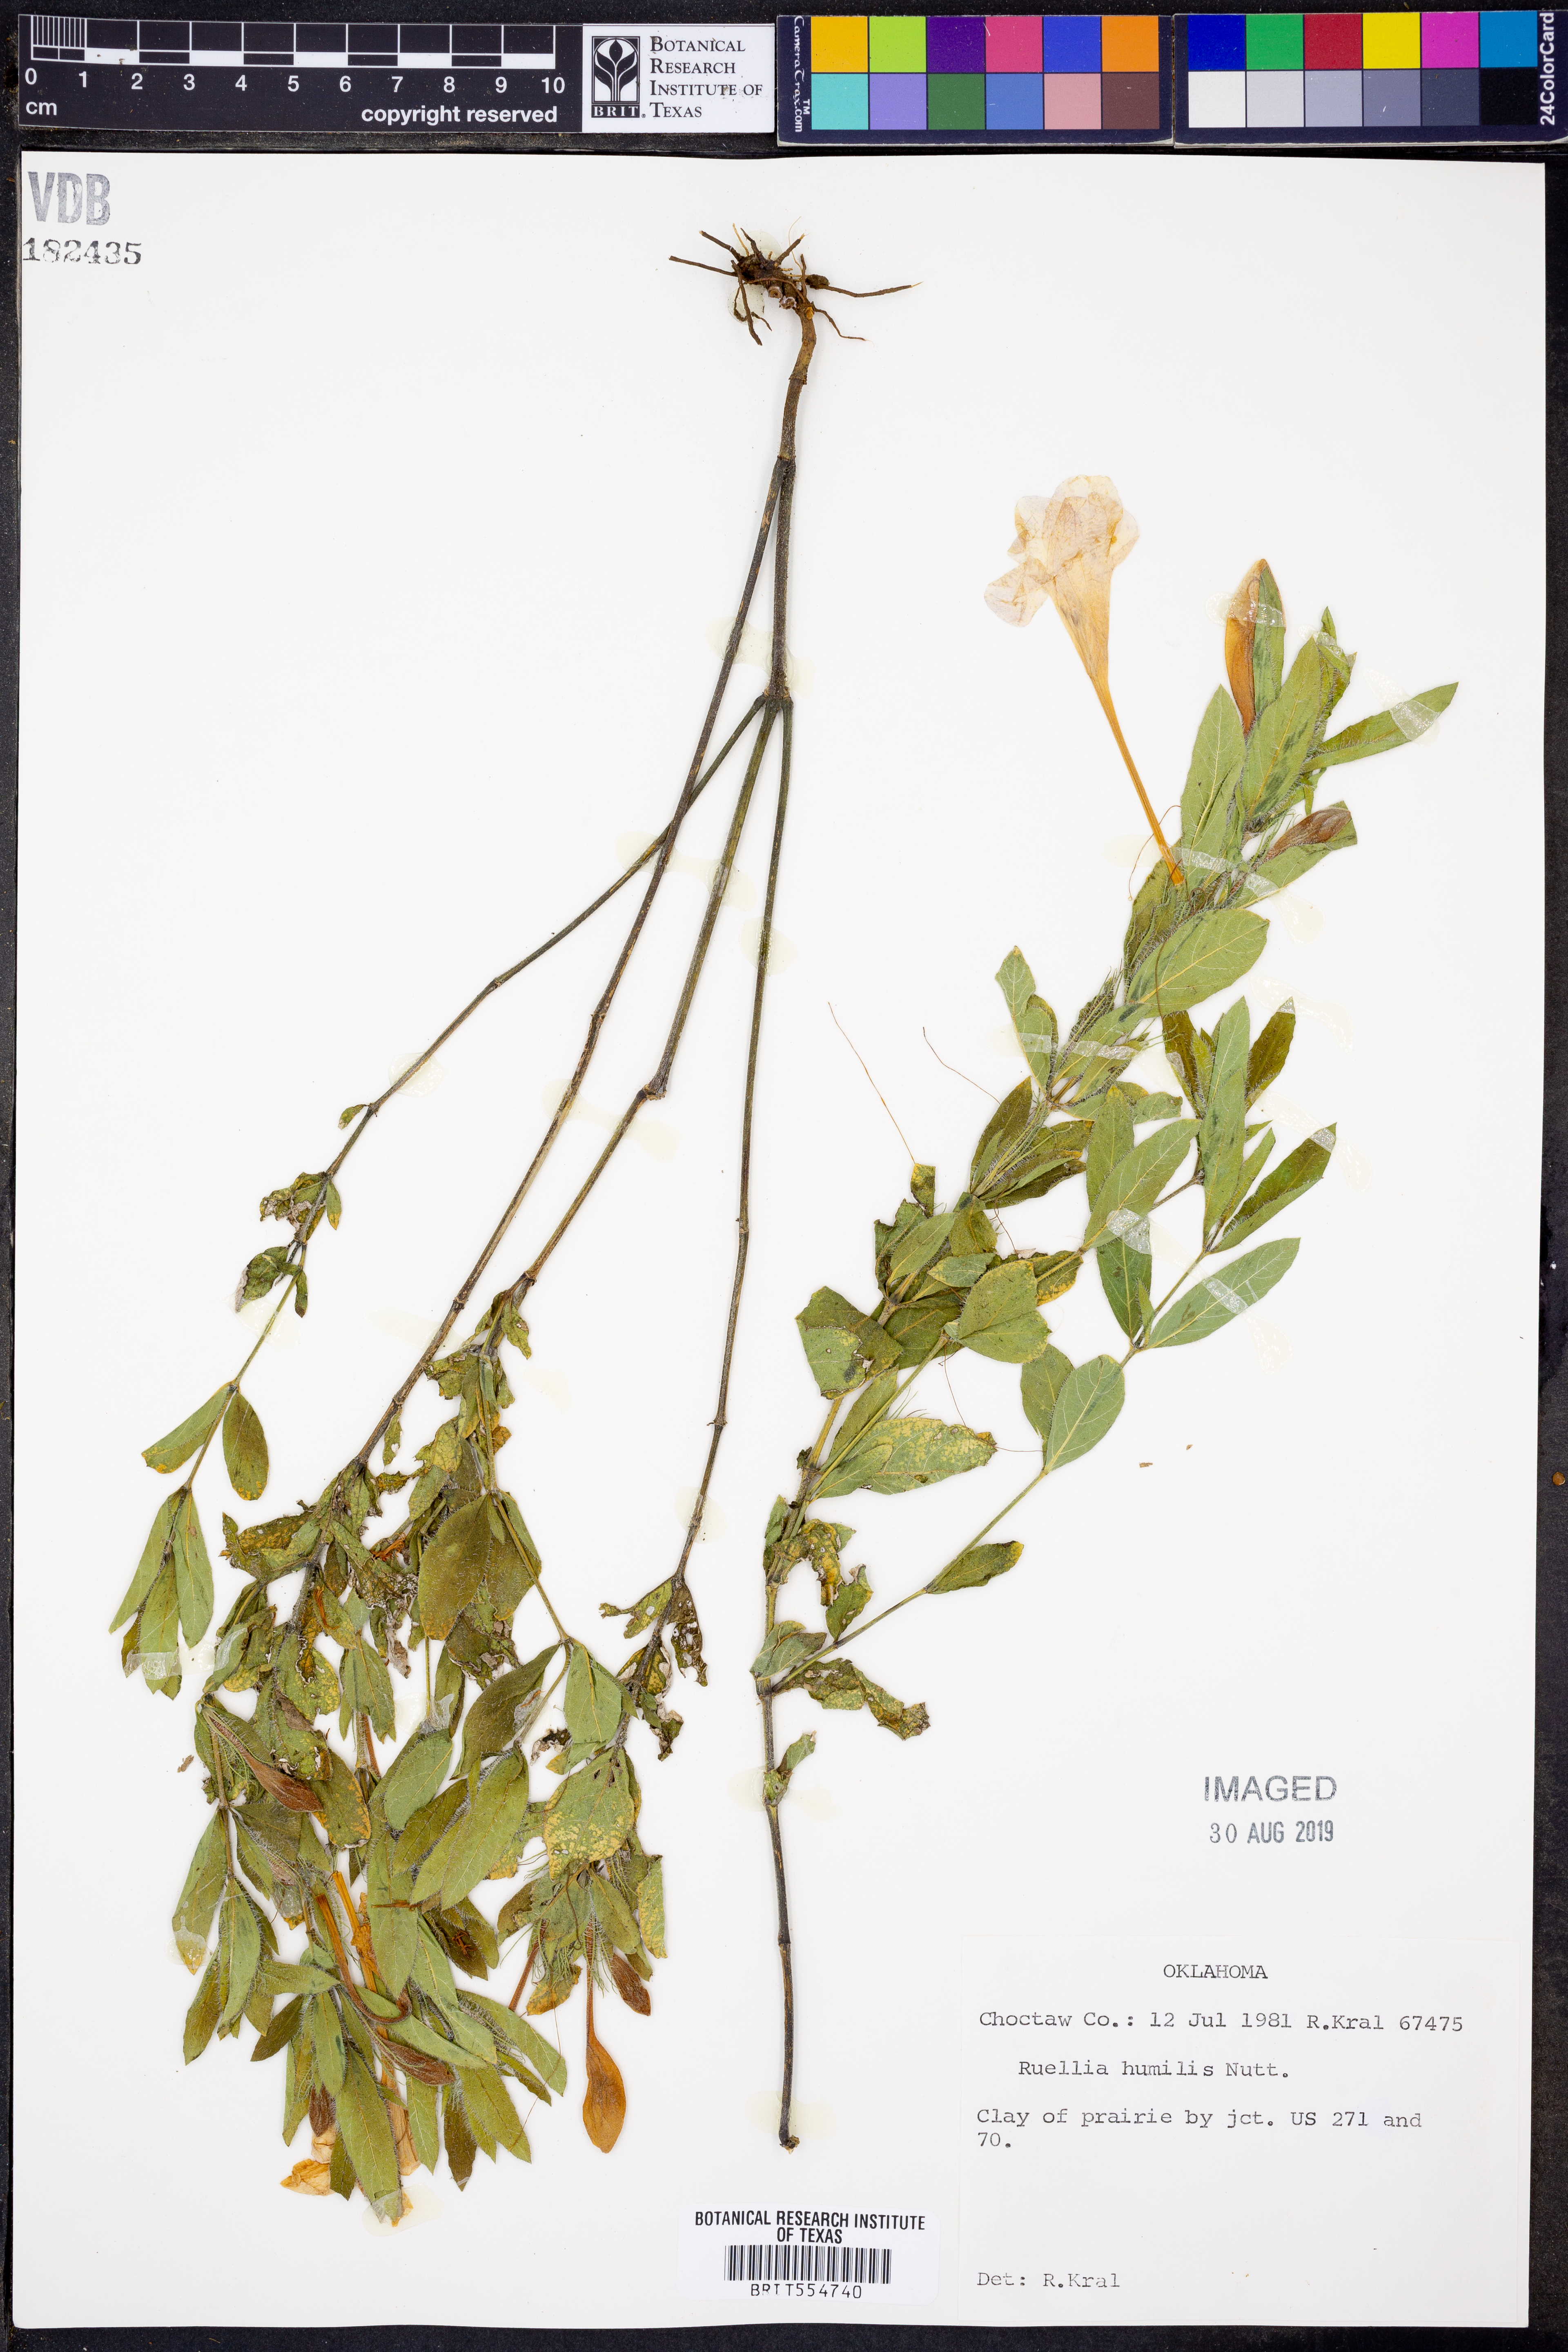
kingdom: Plantae
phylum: Tracheophyta
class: Magnoliopsida
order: Lamiales
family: Acanthaceae
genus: Ruellia
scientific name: Ruellia humilis
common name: Fringe-leaf ruellia
